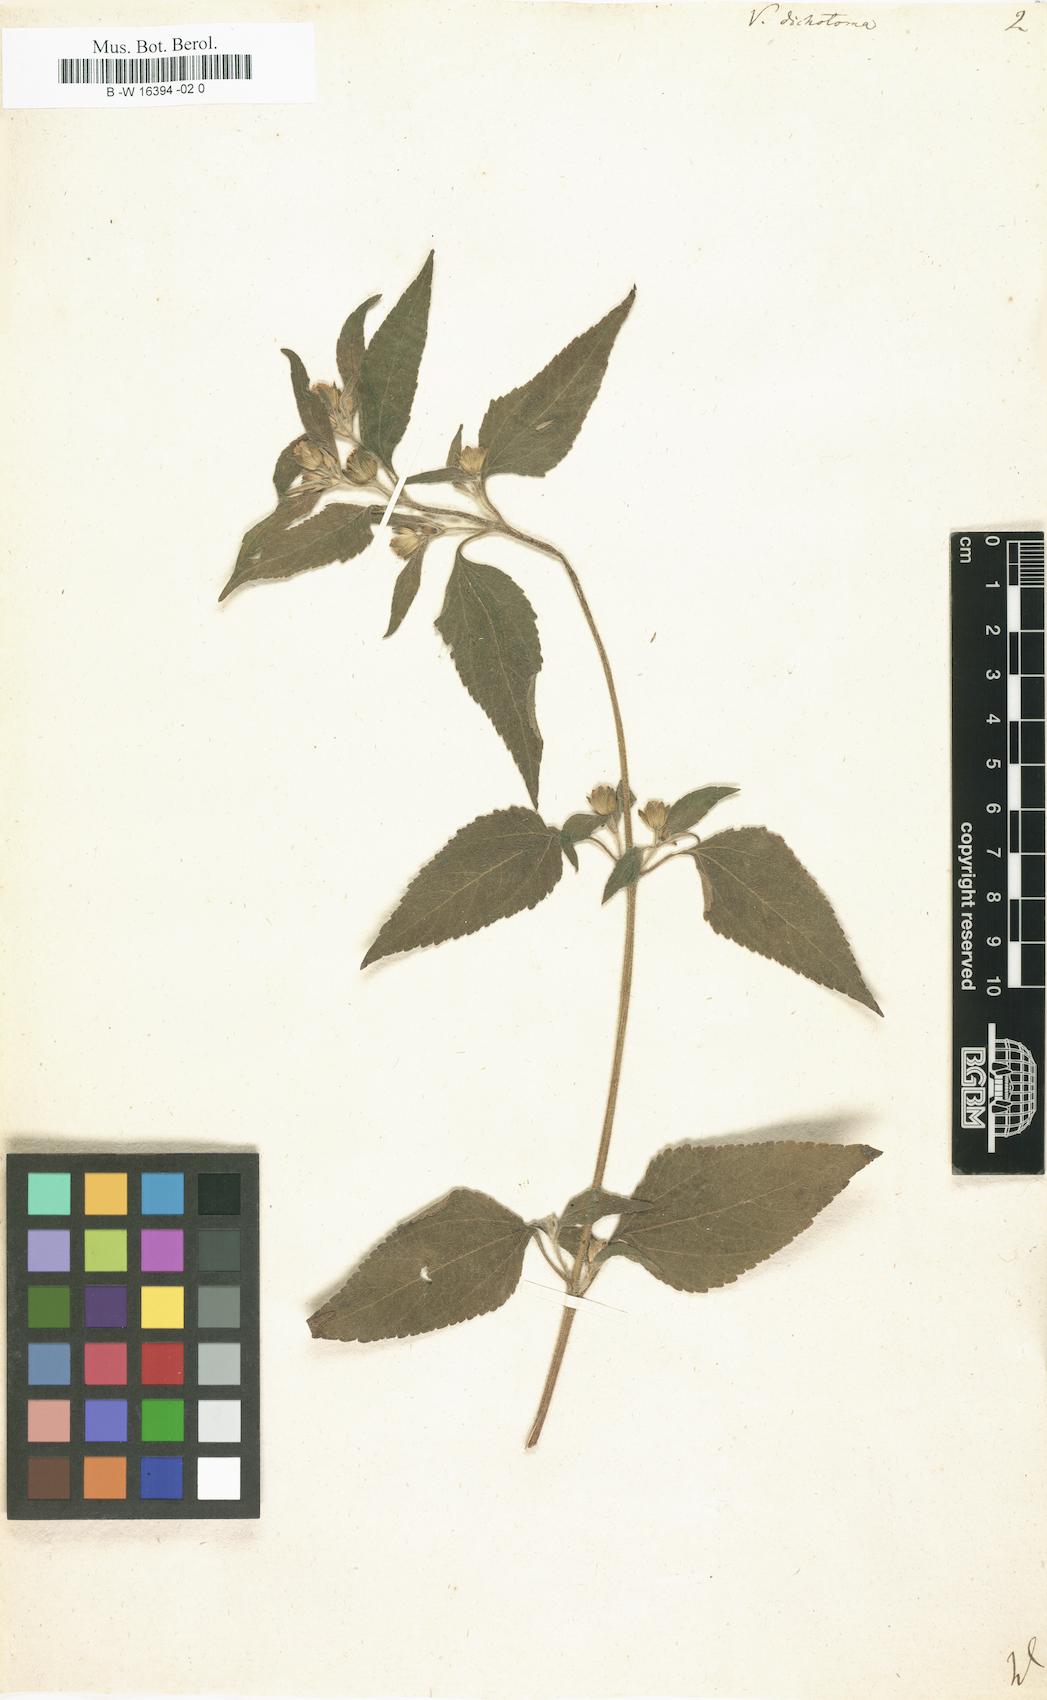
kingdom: Plantae
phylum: Tracheophyta
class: Magnoliopsida
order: Asterales
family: Asteraceae
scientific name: Asteraceae
